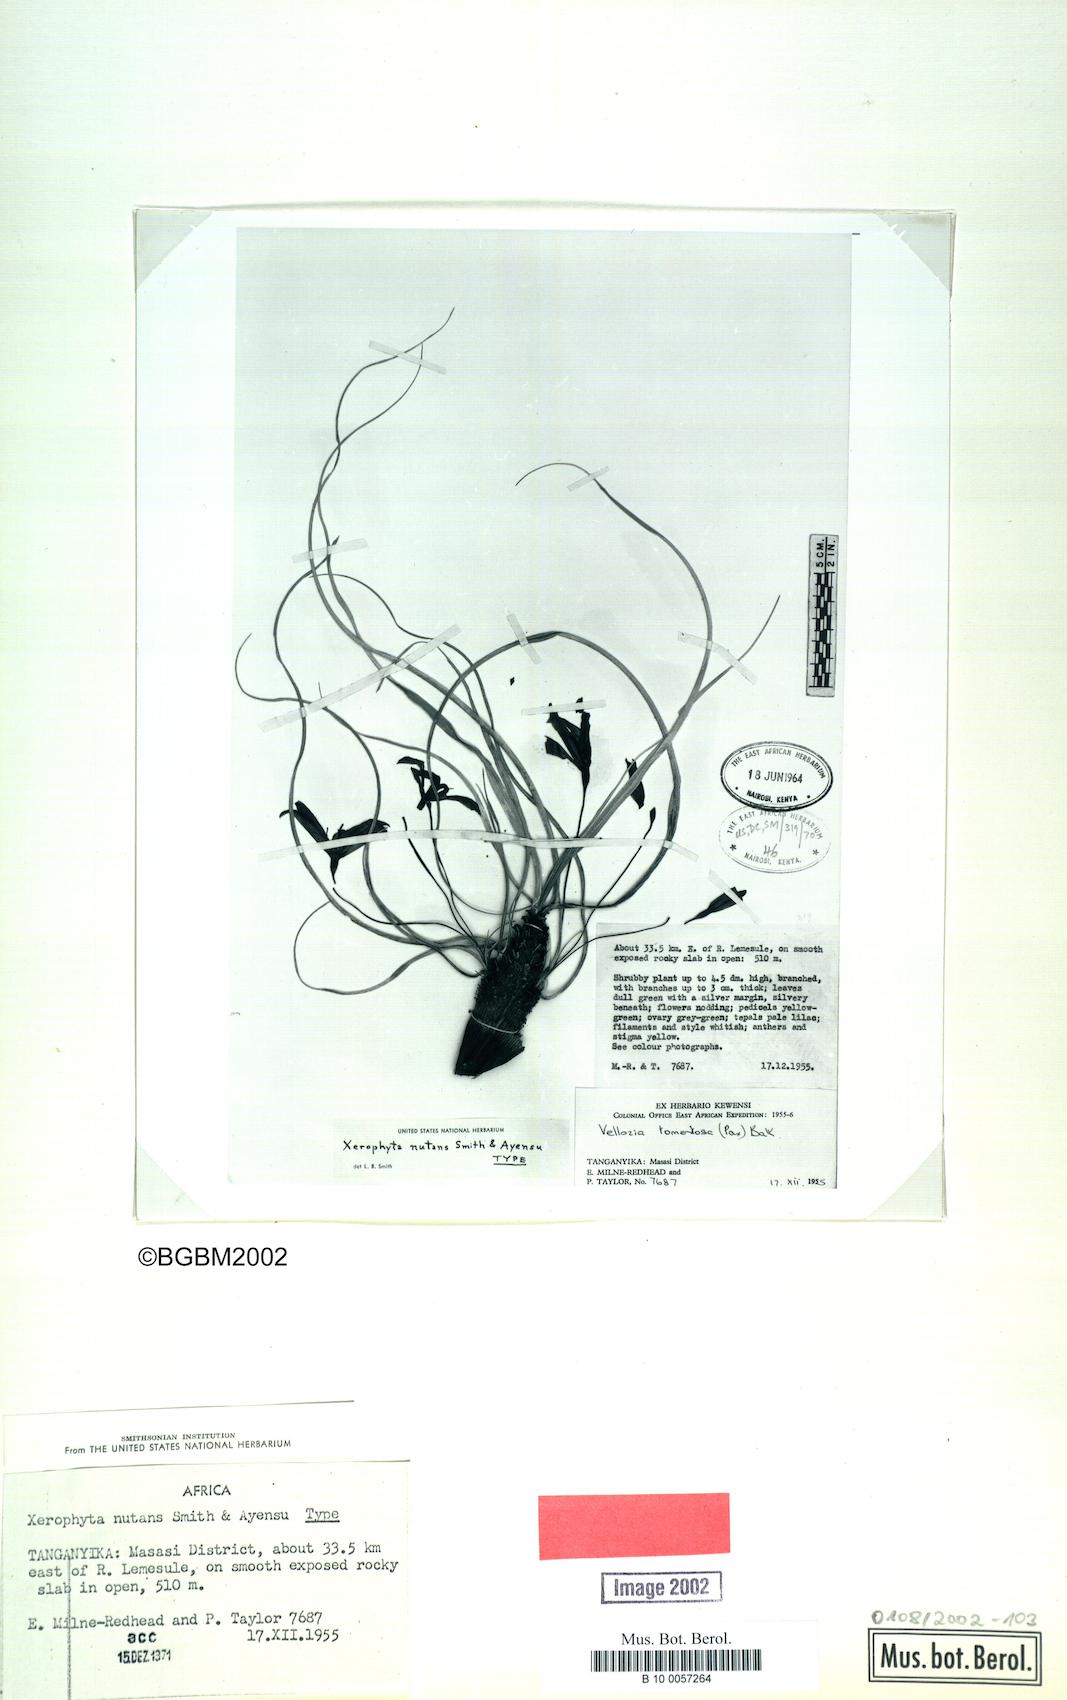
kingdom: Plantae
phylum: Tracheophyta
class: Liliopsida
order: Pandanales
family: Velloziaceae
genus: Xerophyta
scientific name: Xerophyta nutans
